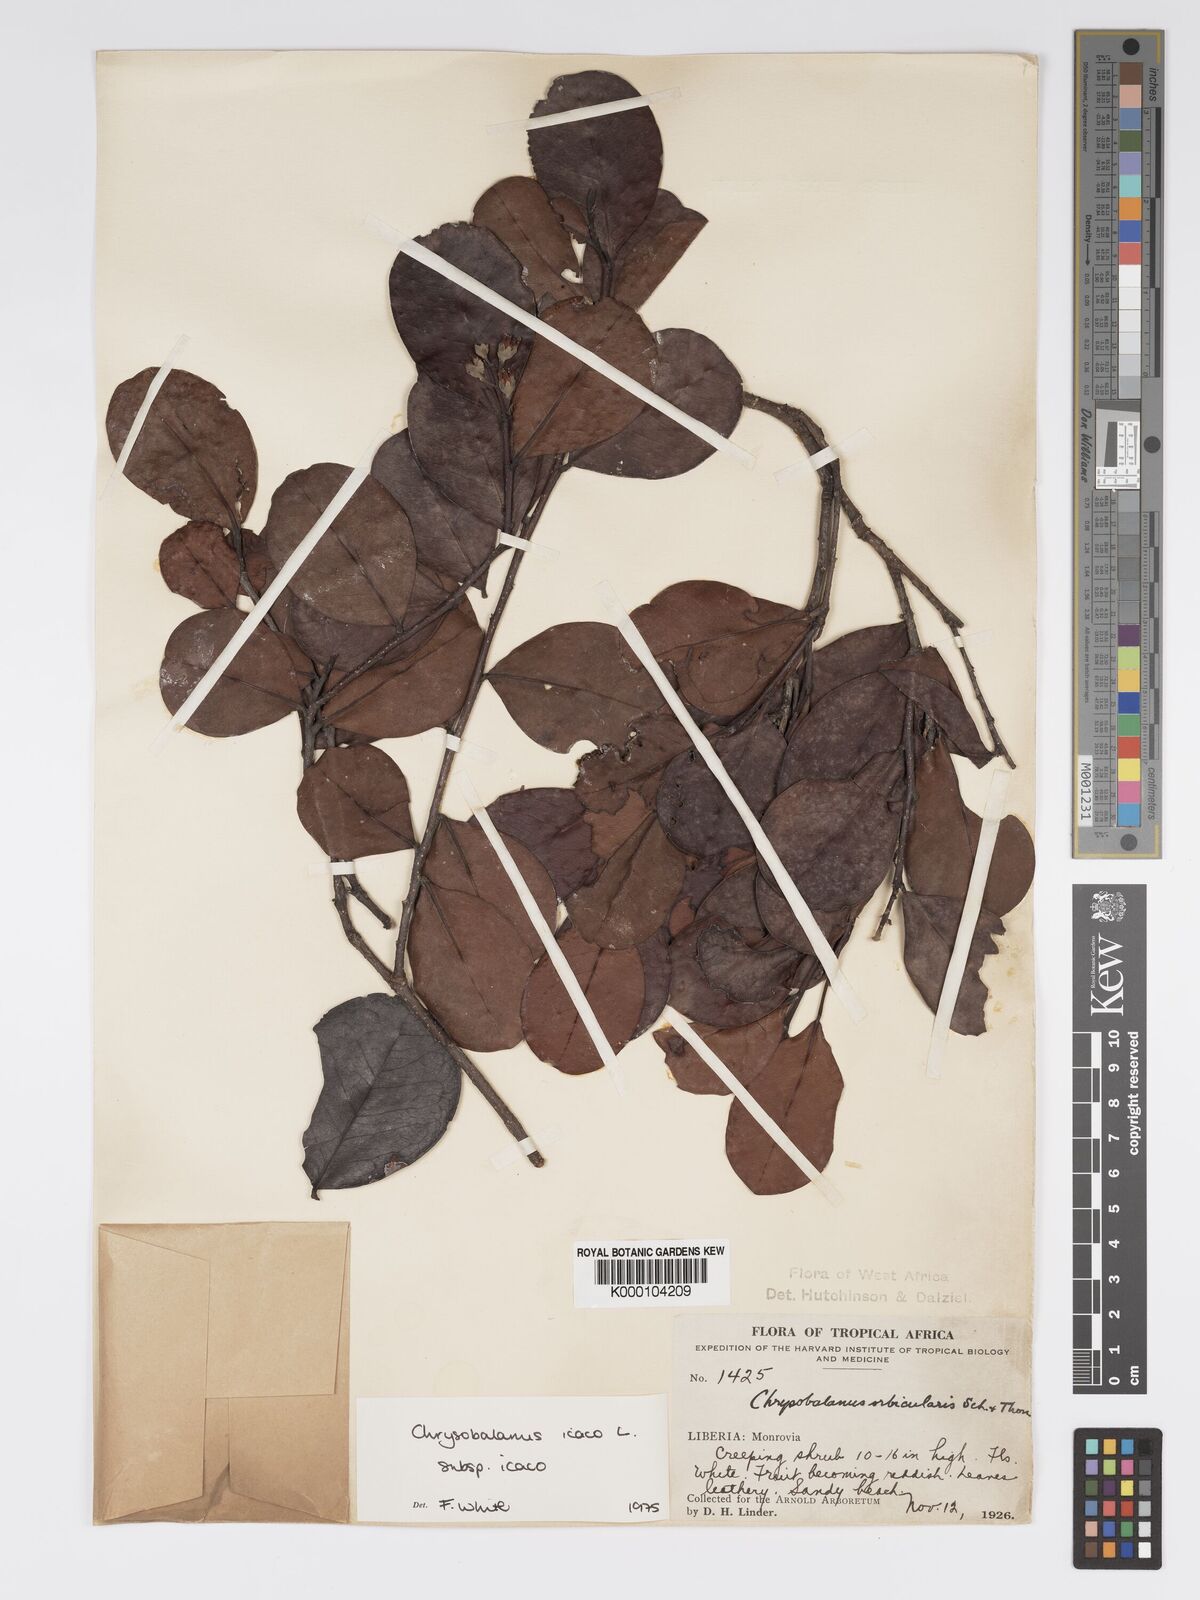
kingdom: Plantae
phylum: Tracheophyta
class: Magnoliopsida
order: Malpighiales
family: Chrysobalanaceae
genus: Chrysobalanus
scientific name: Chrysobalanus icaco
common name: Coco plum
